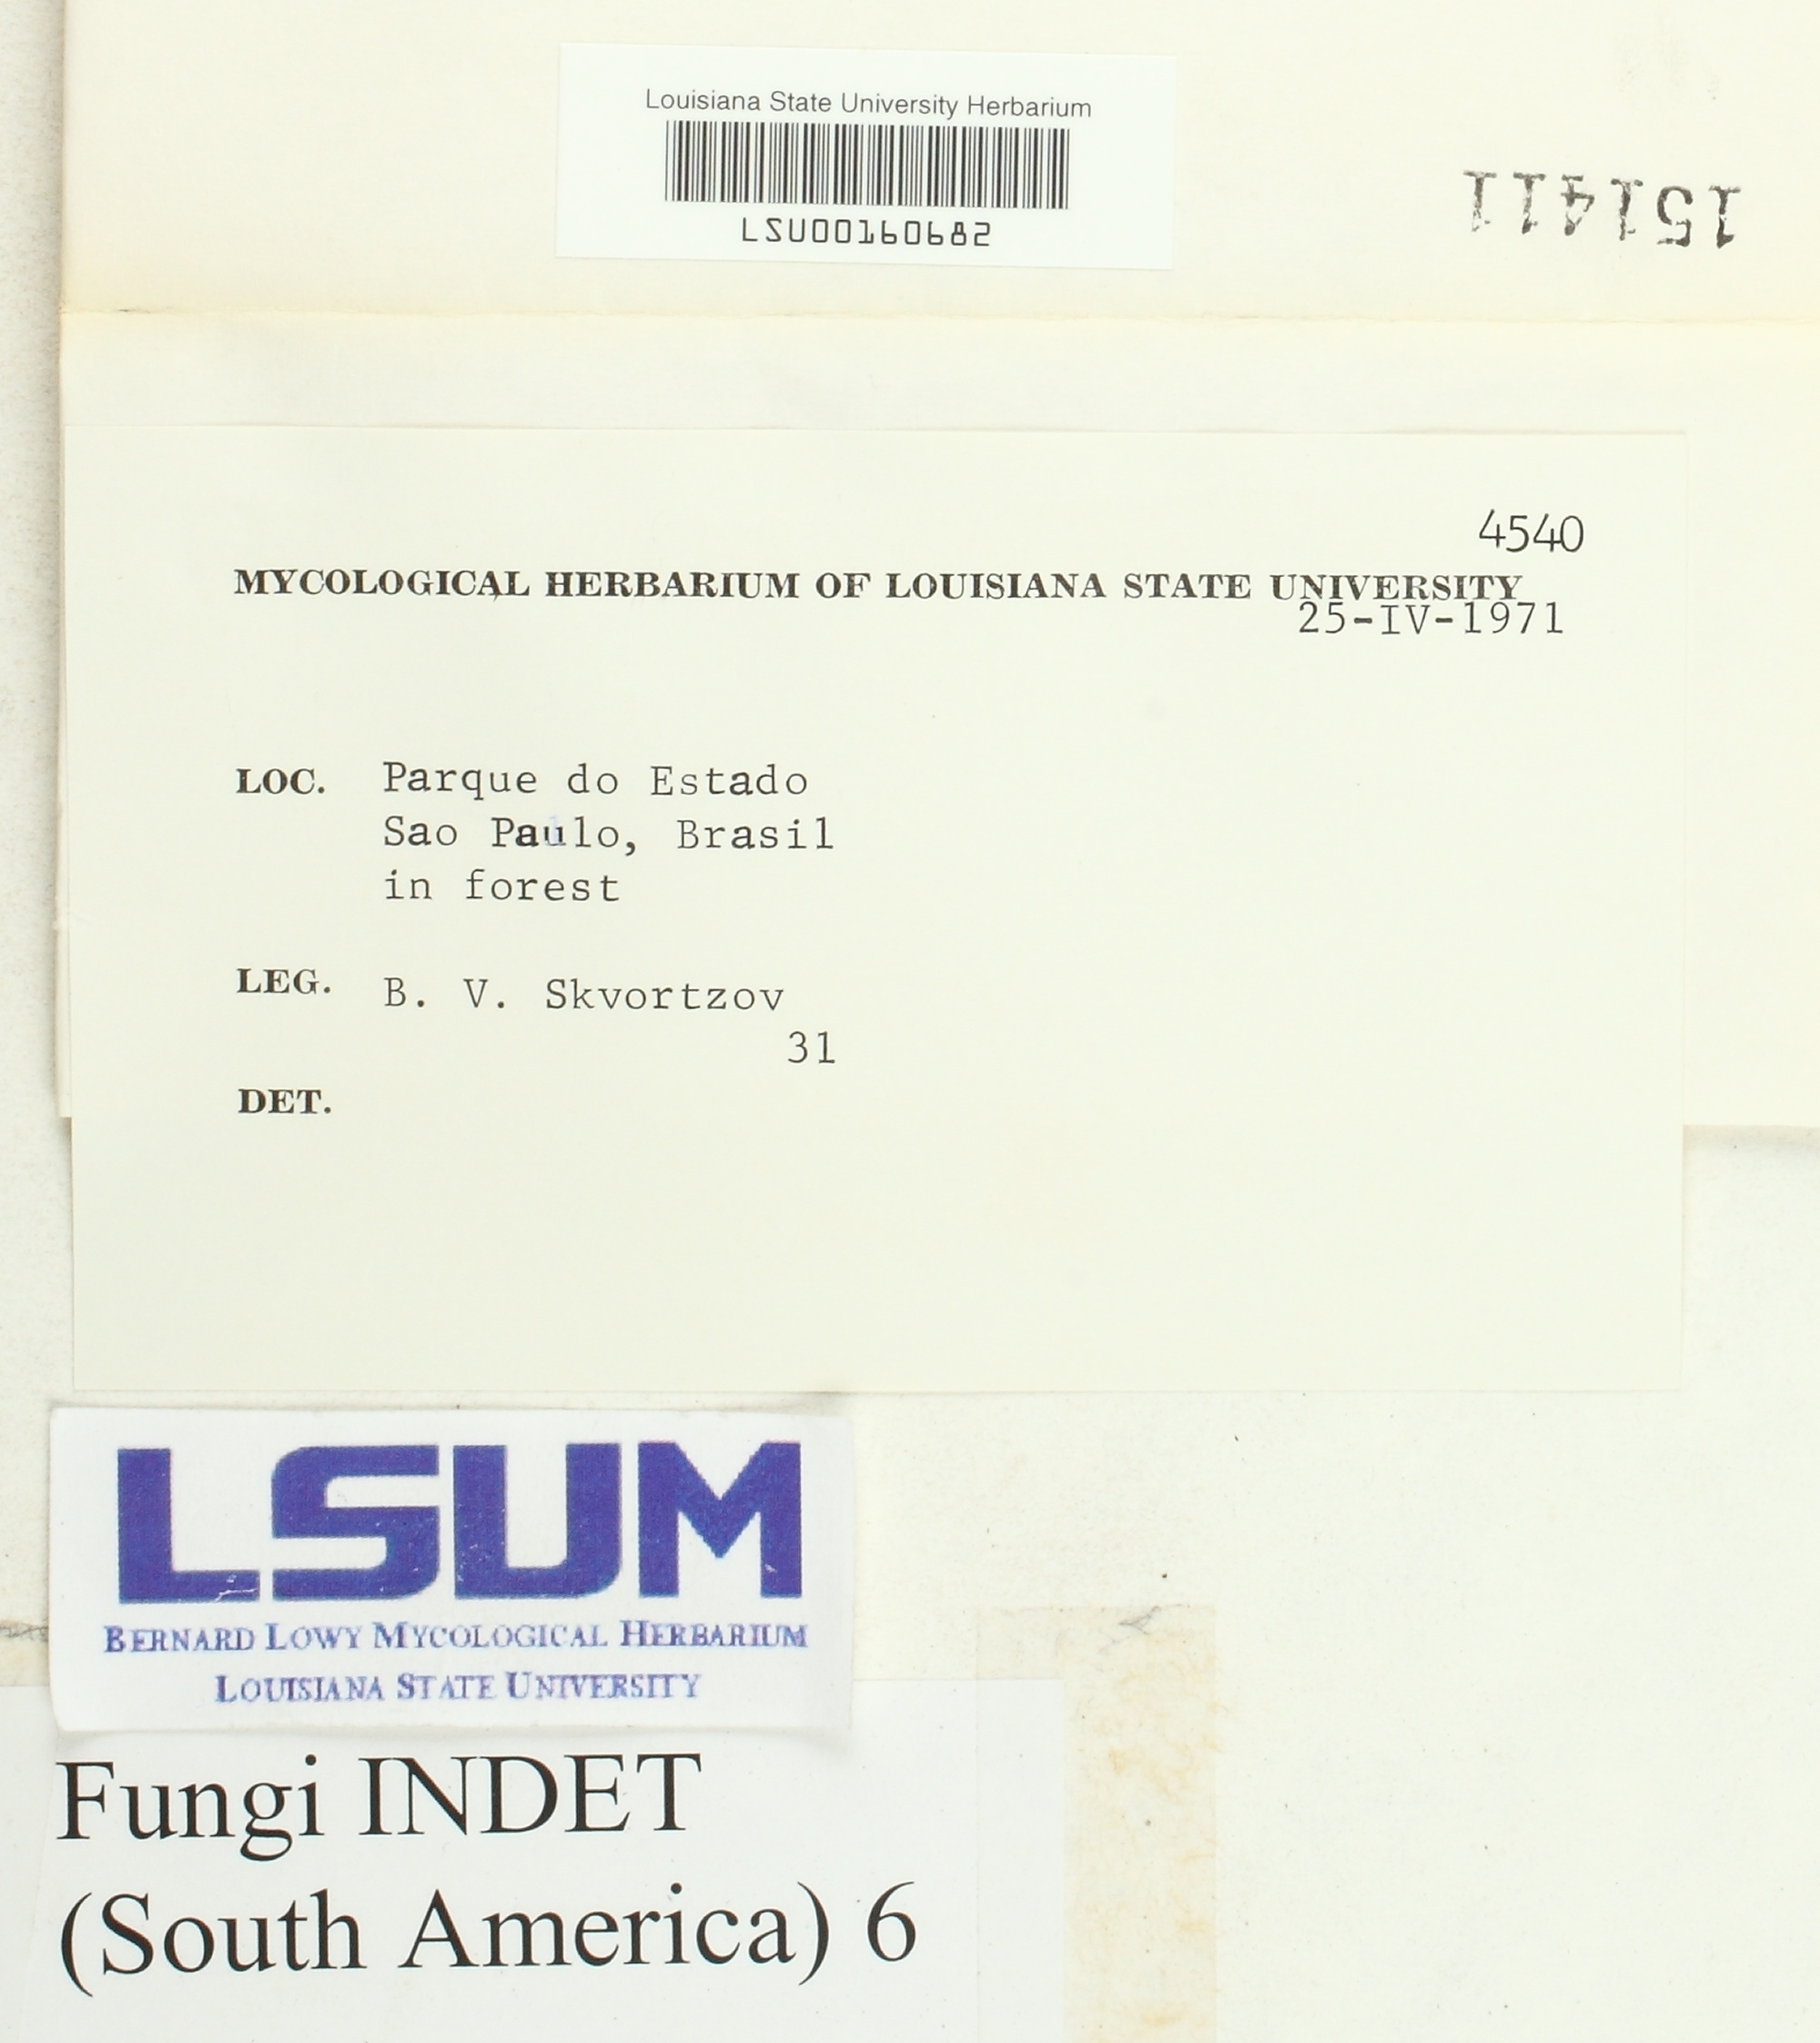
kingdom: Fungi
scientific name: Fungi
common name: Fungi
